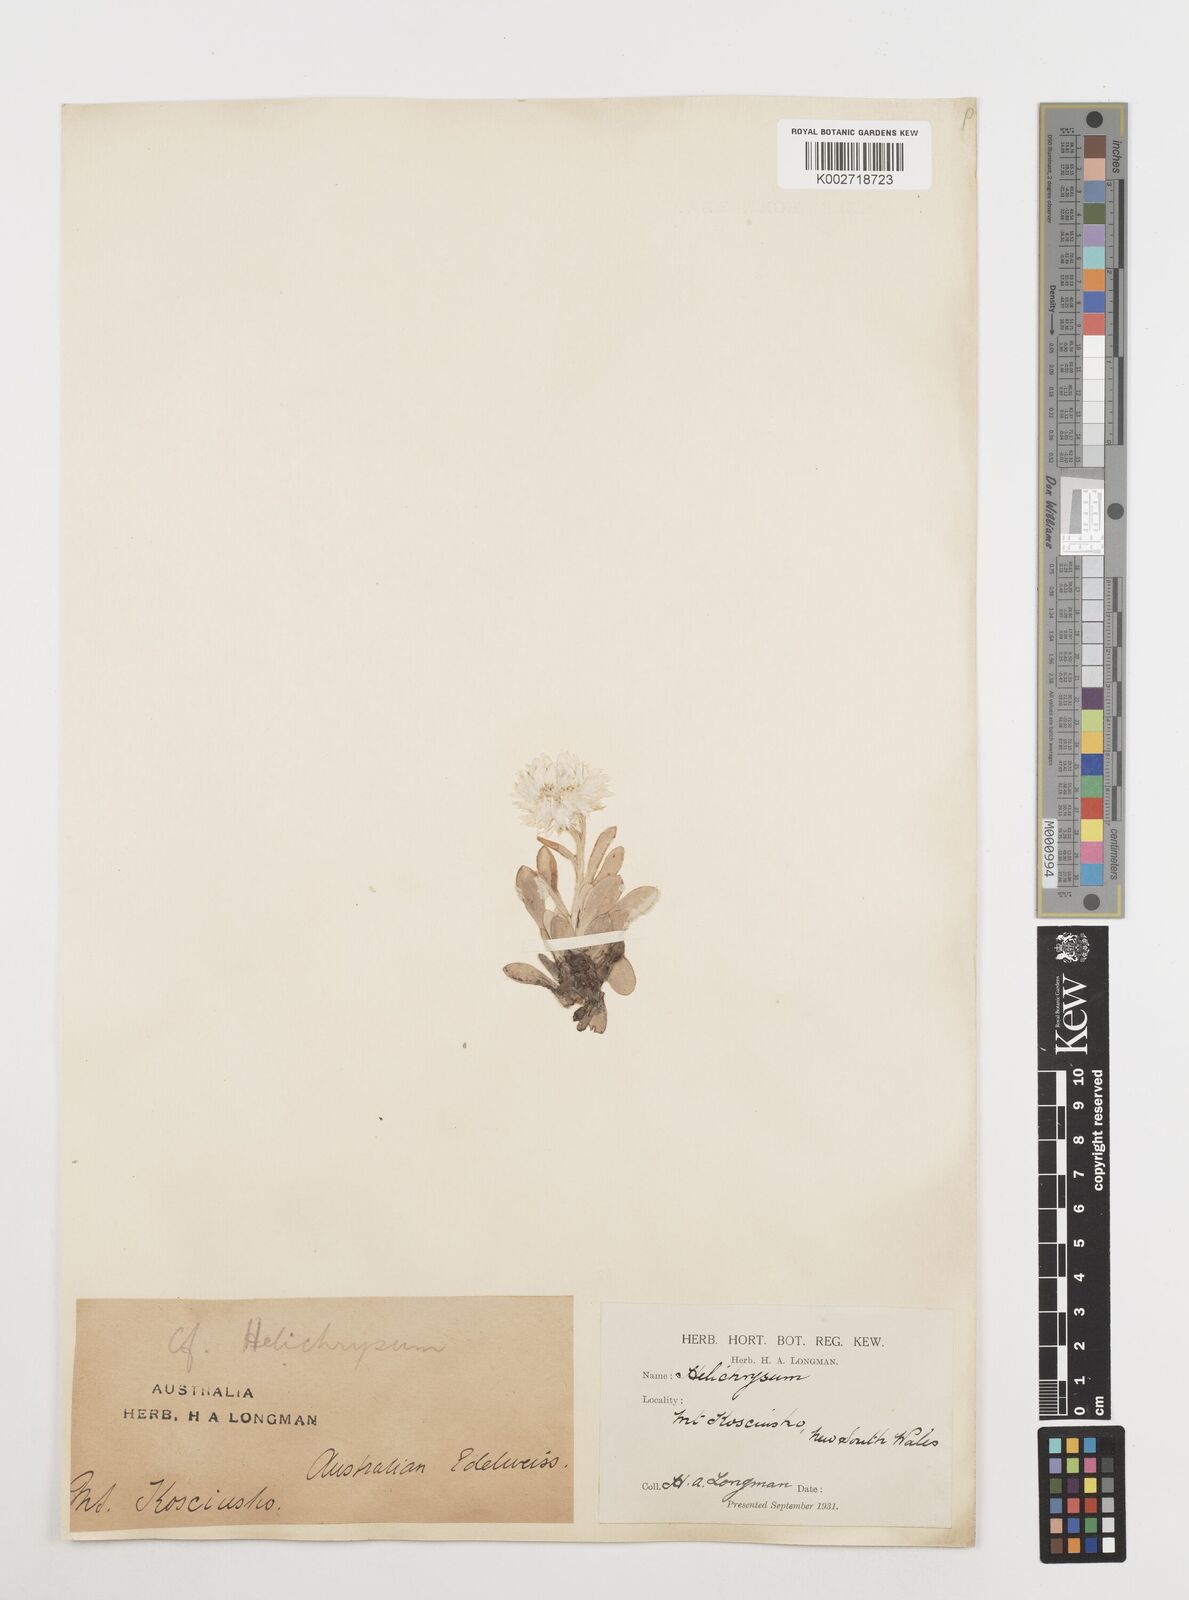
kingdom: Plantae
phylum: Tracheophyta
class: Magnoliopsida
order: Asterales
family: Asteraceae
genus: Coronidium
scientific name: Coronidium
